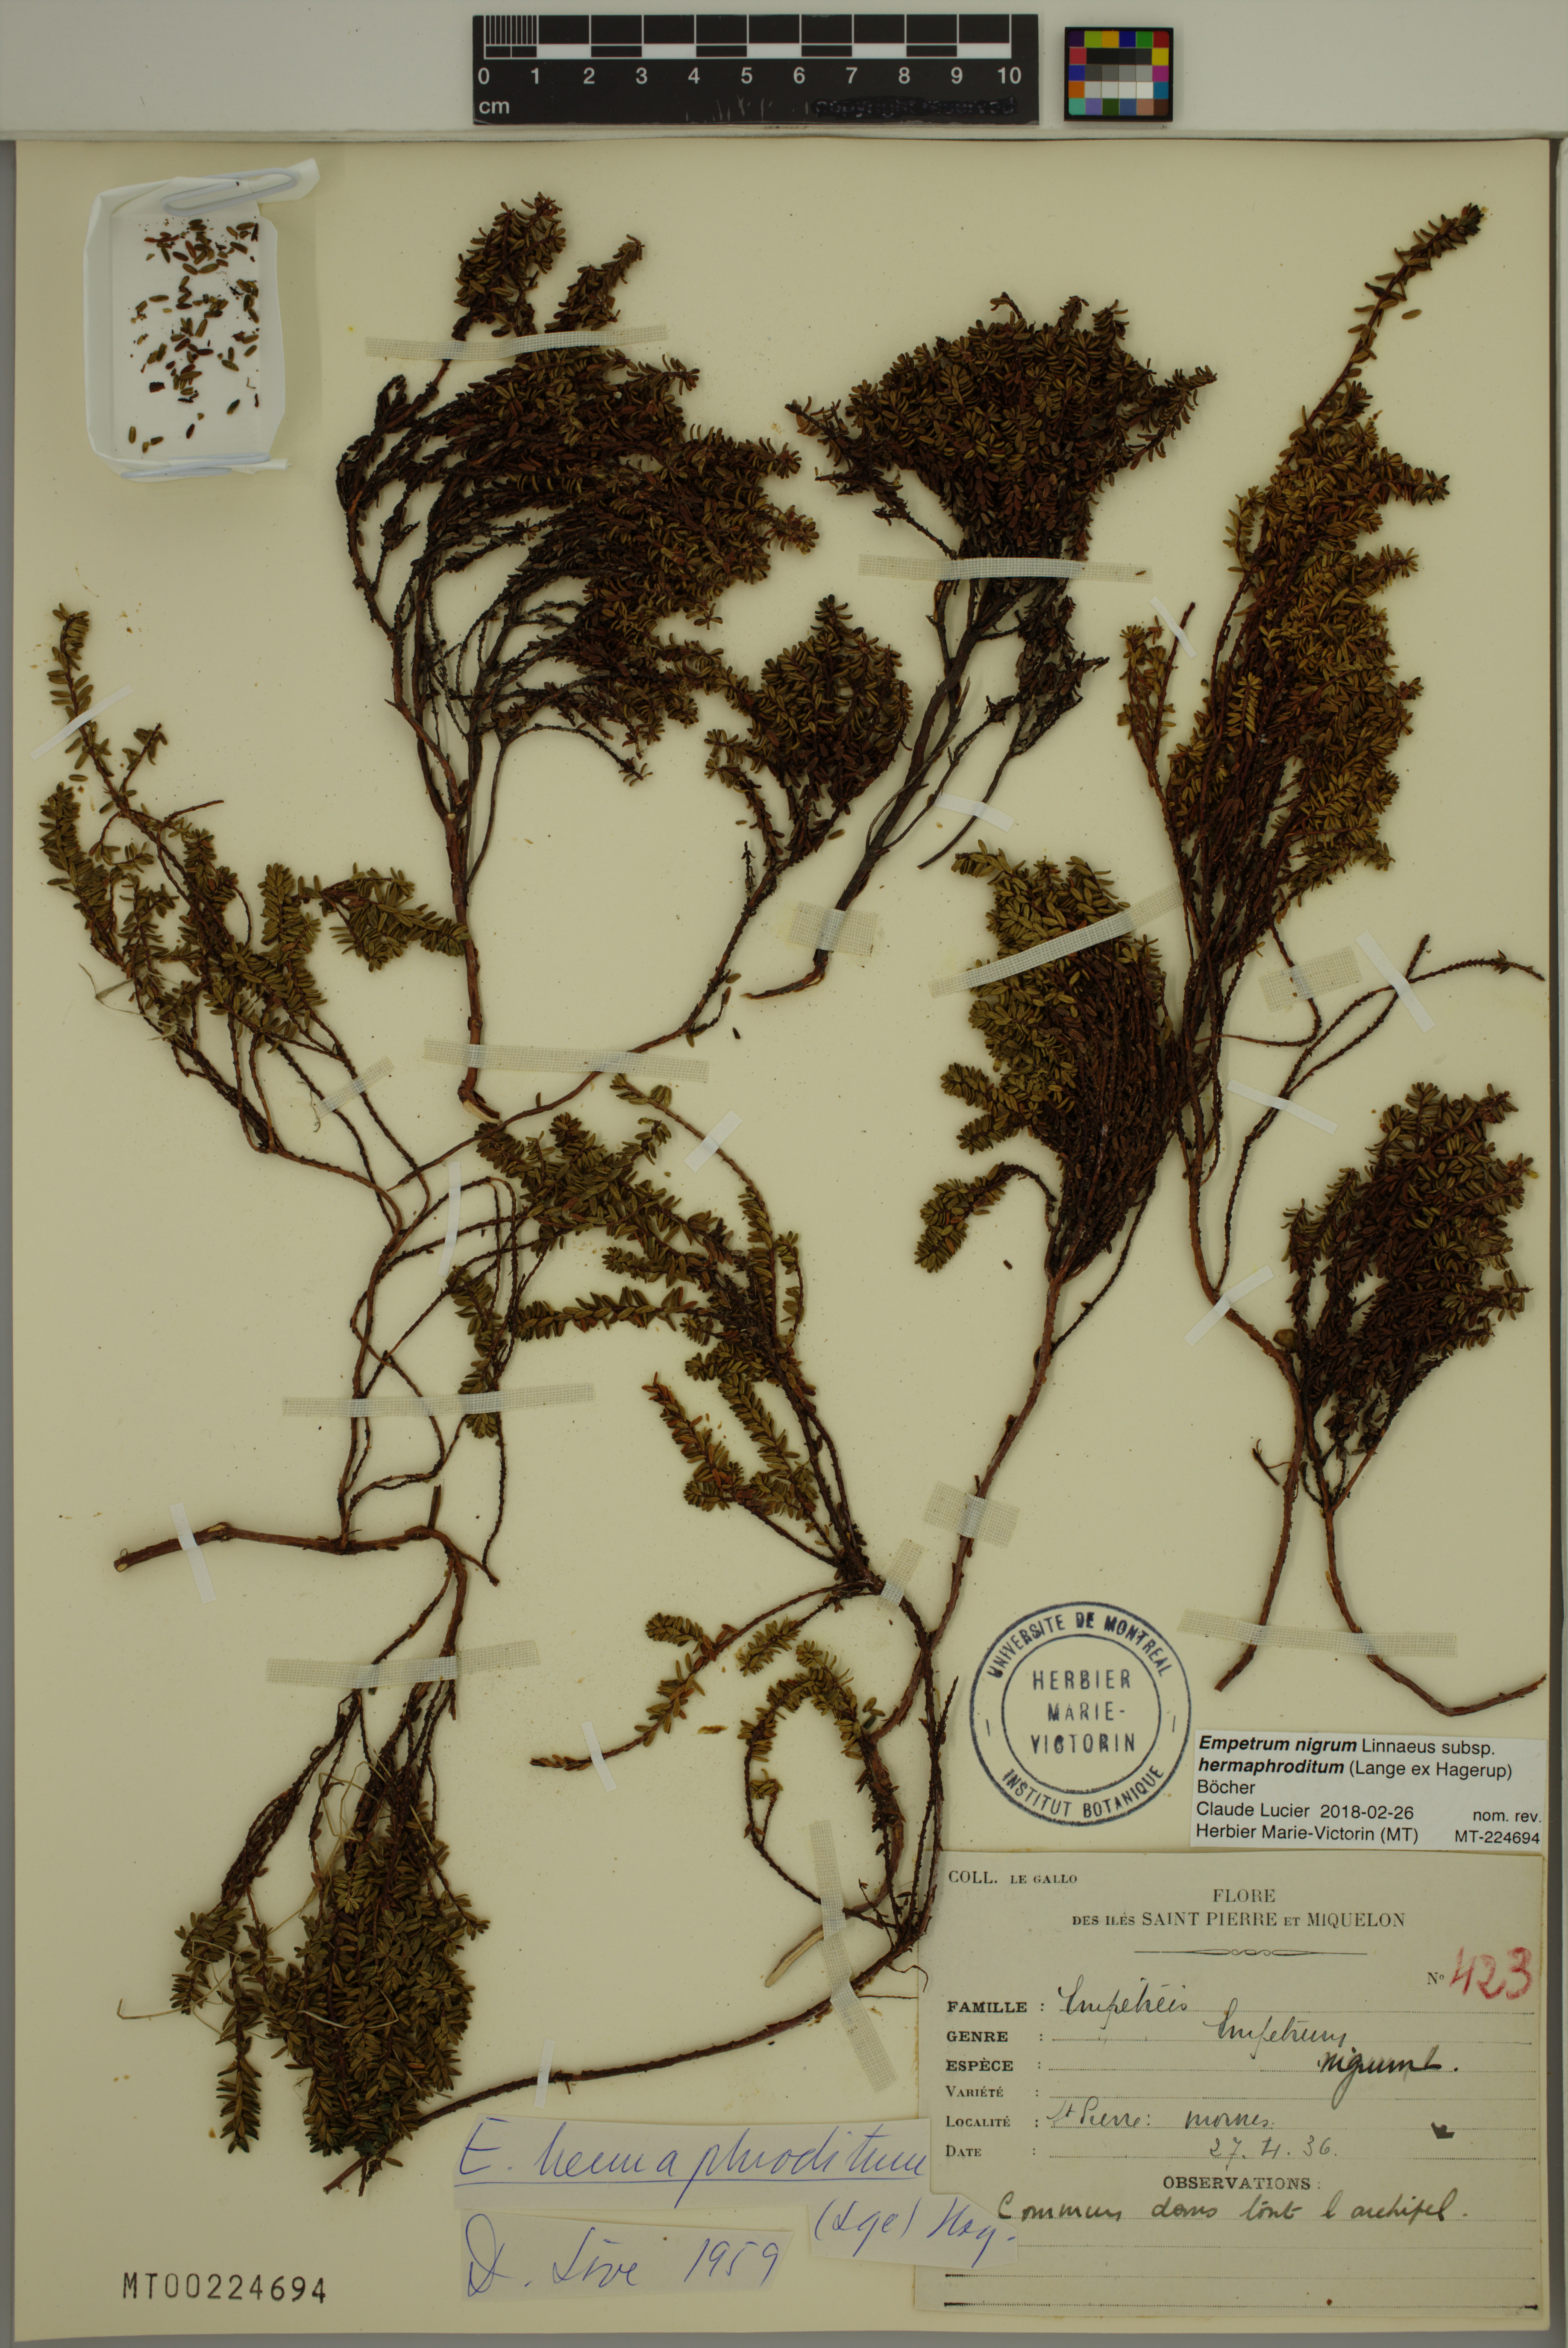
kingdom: Plantae
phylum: Tracheophyta
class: Magnoliopsida
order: Ericales
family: Ericaceae
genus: Empetrum
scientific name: Empetrum hermaphroditum
